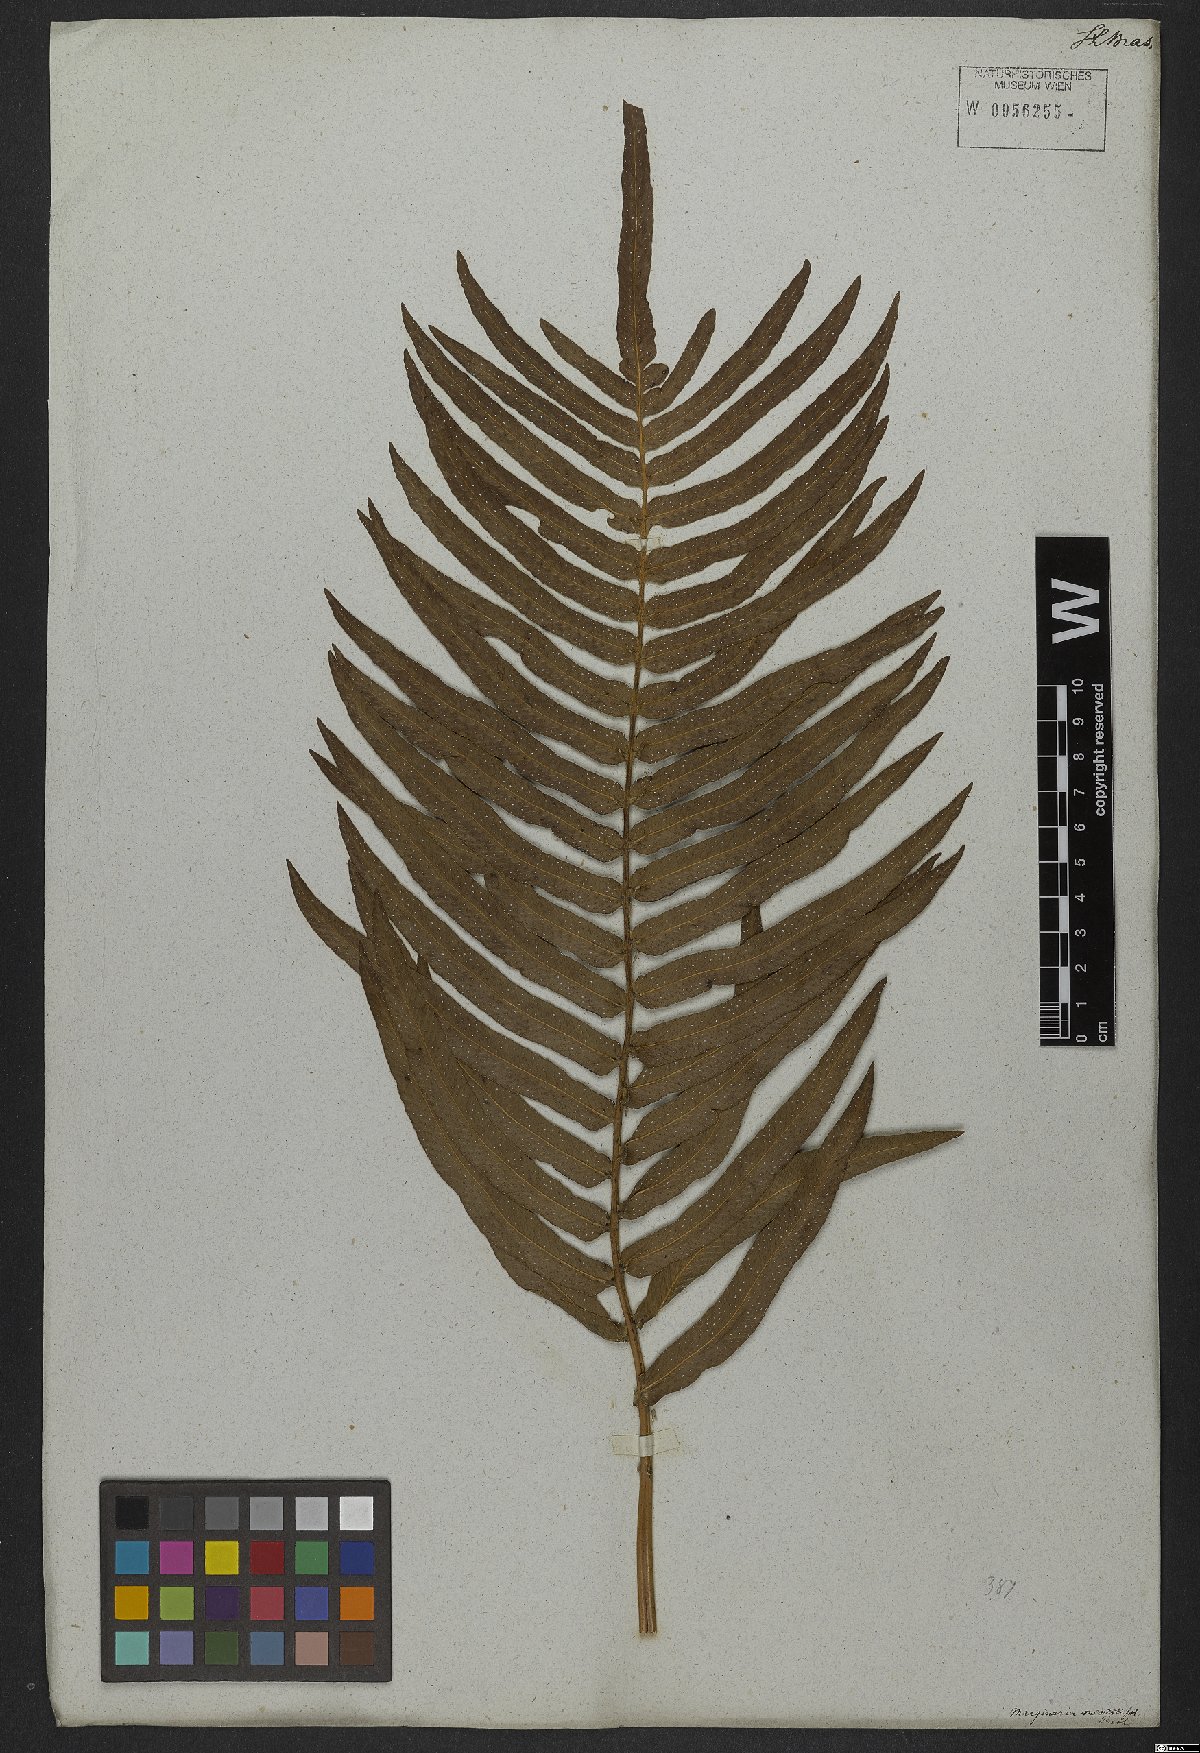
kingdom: Plantae
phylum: Tracheophyta
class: Polypodiopsida
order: Polypodiales
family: Polypodiaceae
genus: Serpocaulon
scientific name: Serpocaulon triseriale
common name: Angle-vein fern
